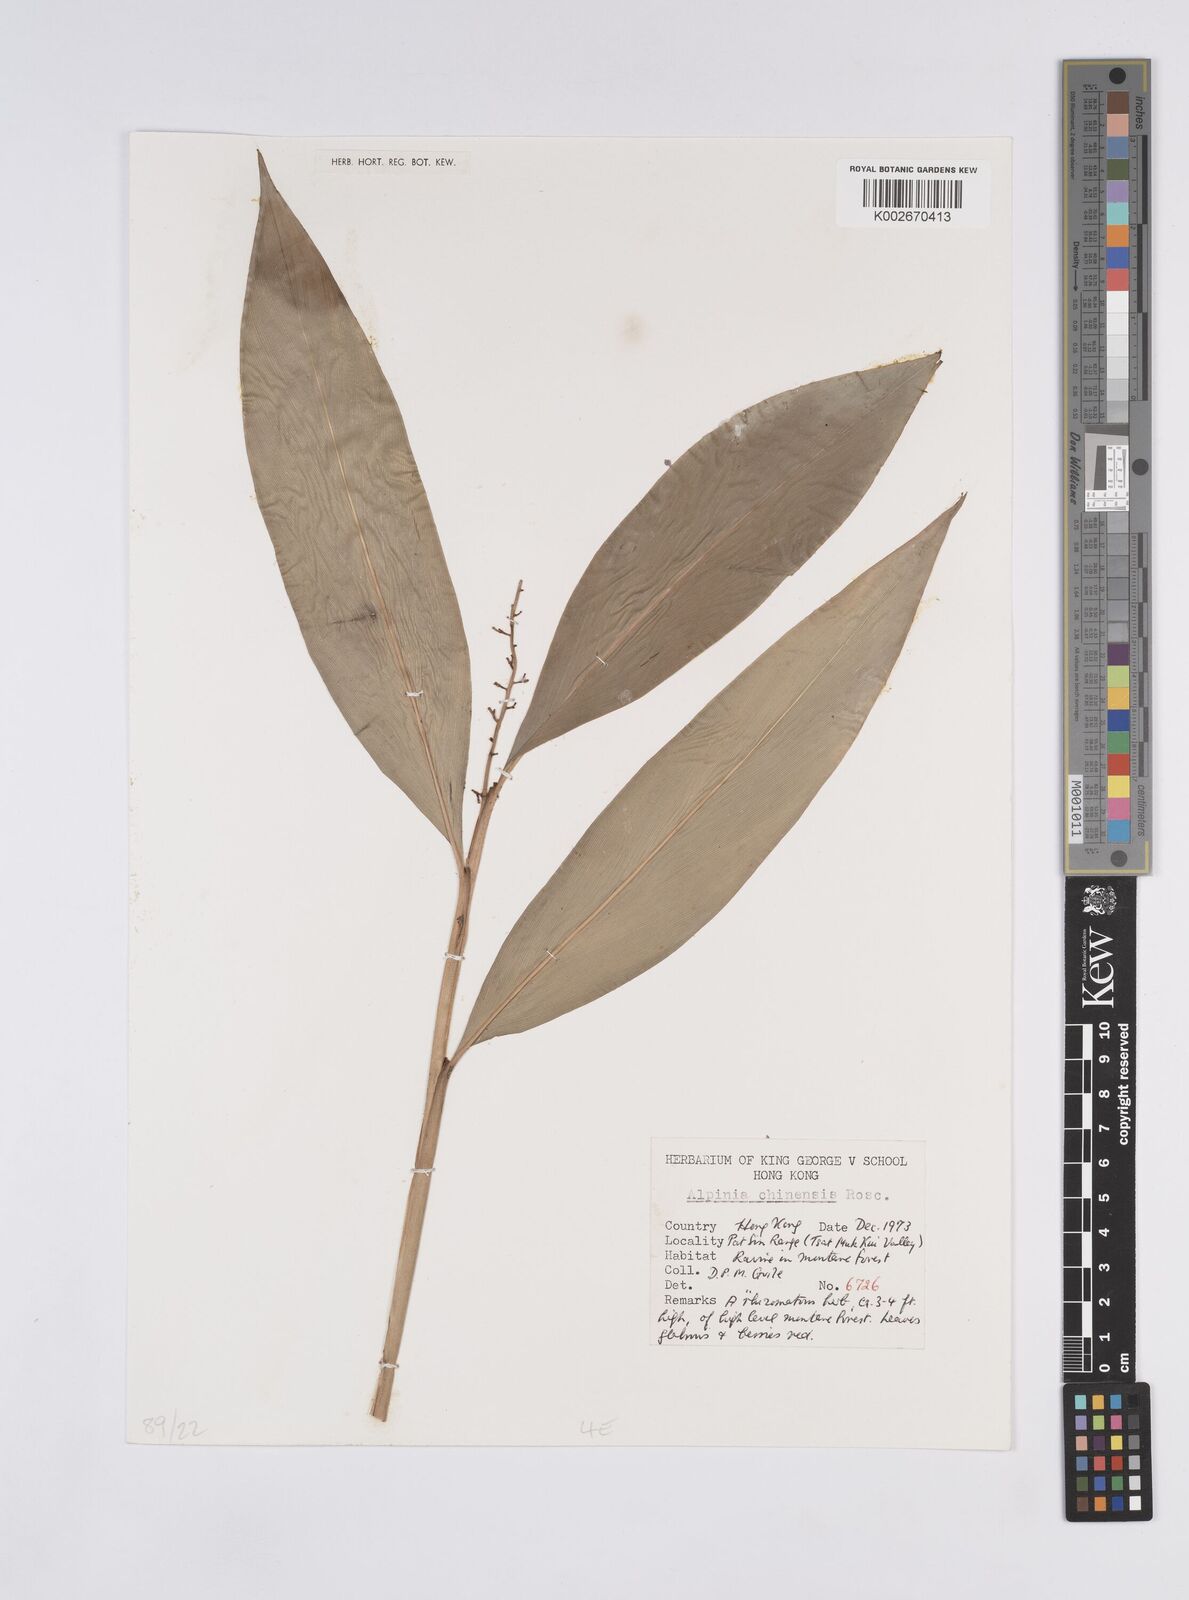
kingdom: Plantae
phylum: Tracheophyta
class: Liliopsida
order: Zingiberales
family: Zingiberaceae
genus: Alpinia
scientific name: Alpinia chinensis
